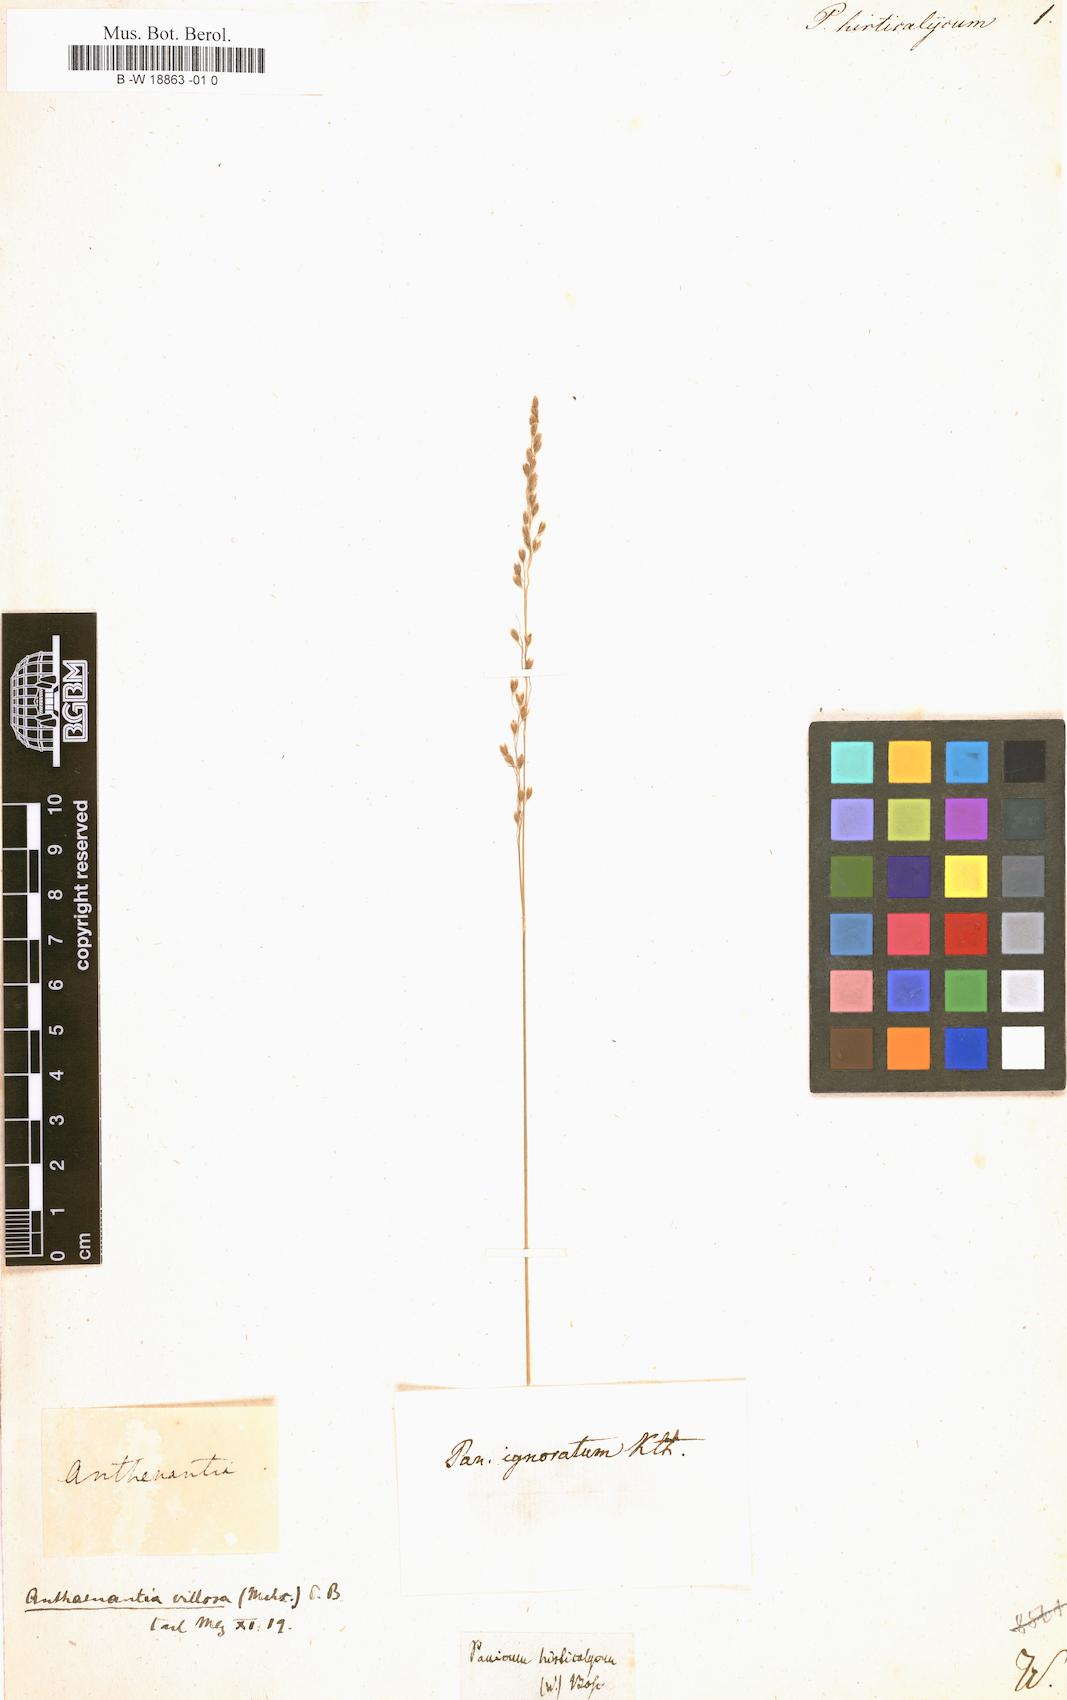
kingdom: Plantae
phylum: Tracheophyta
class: Liliopsida
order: Poales
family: Poaceae
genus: Anthenantia
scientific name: Anthenantia villosa
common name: Green silkyscale
